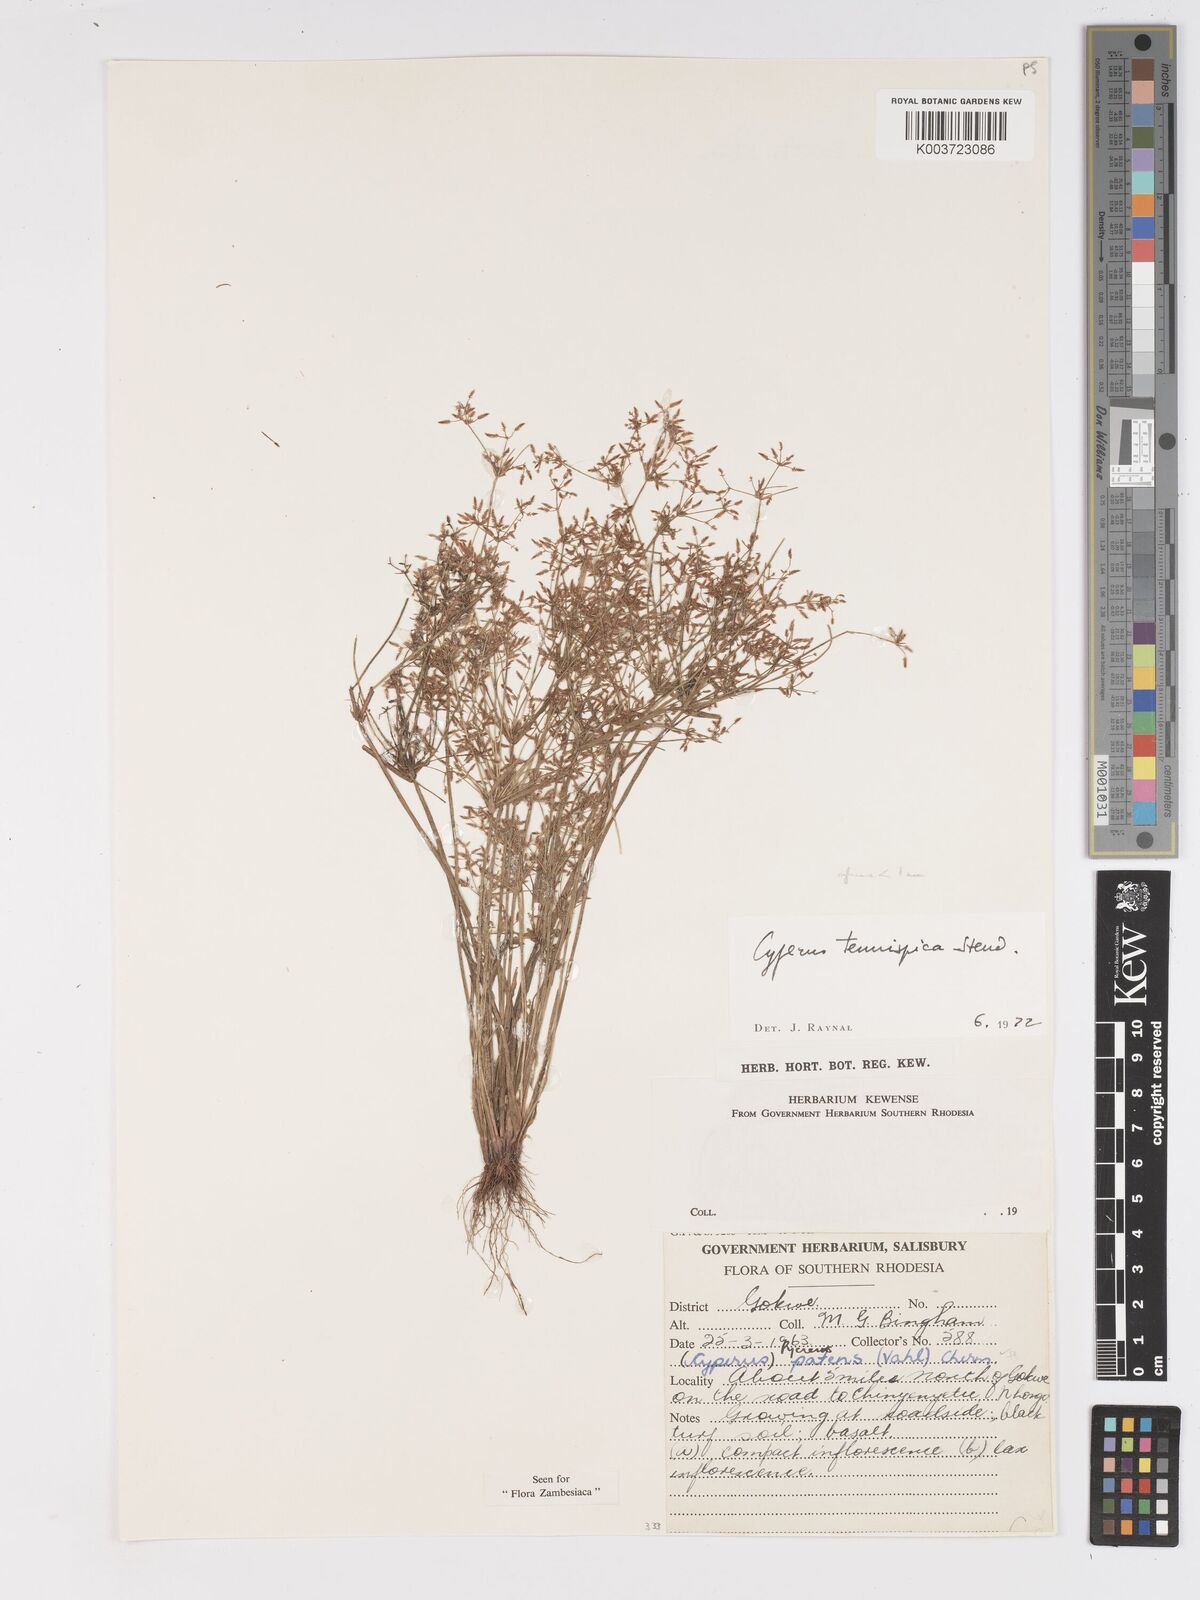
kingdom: Plantae
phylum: Tracheophyta
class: Liliopsida
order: Poales
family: Cyperaceae
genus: Cyperus
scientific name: Cyperus tenuispica
